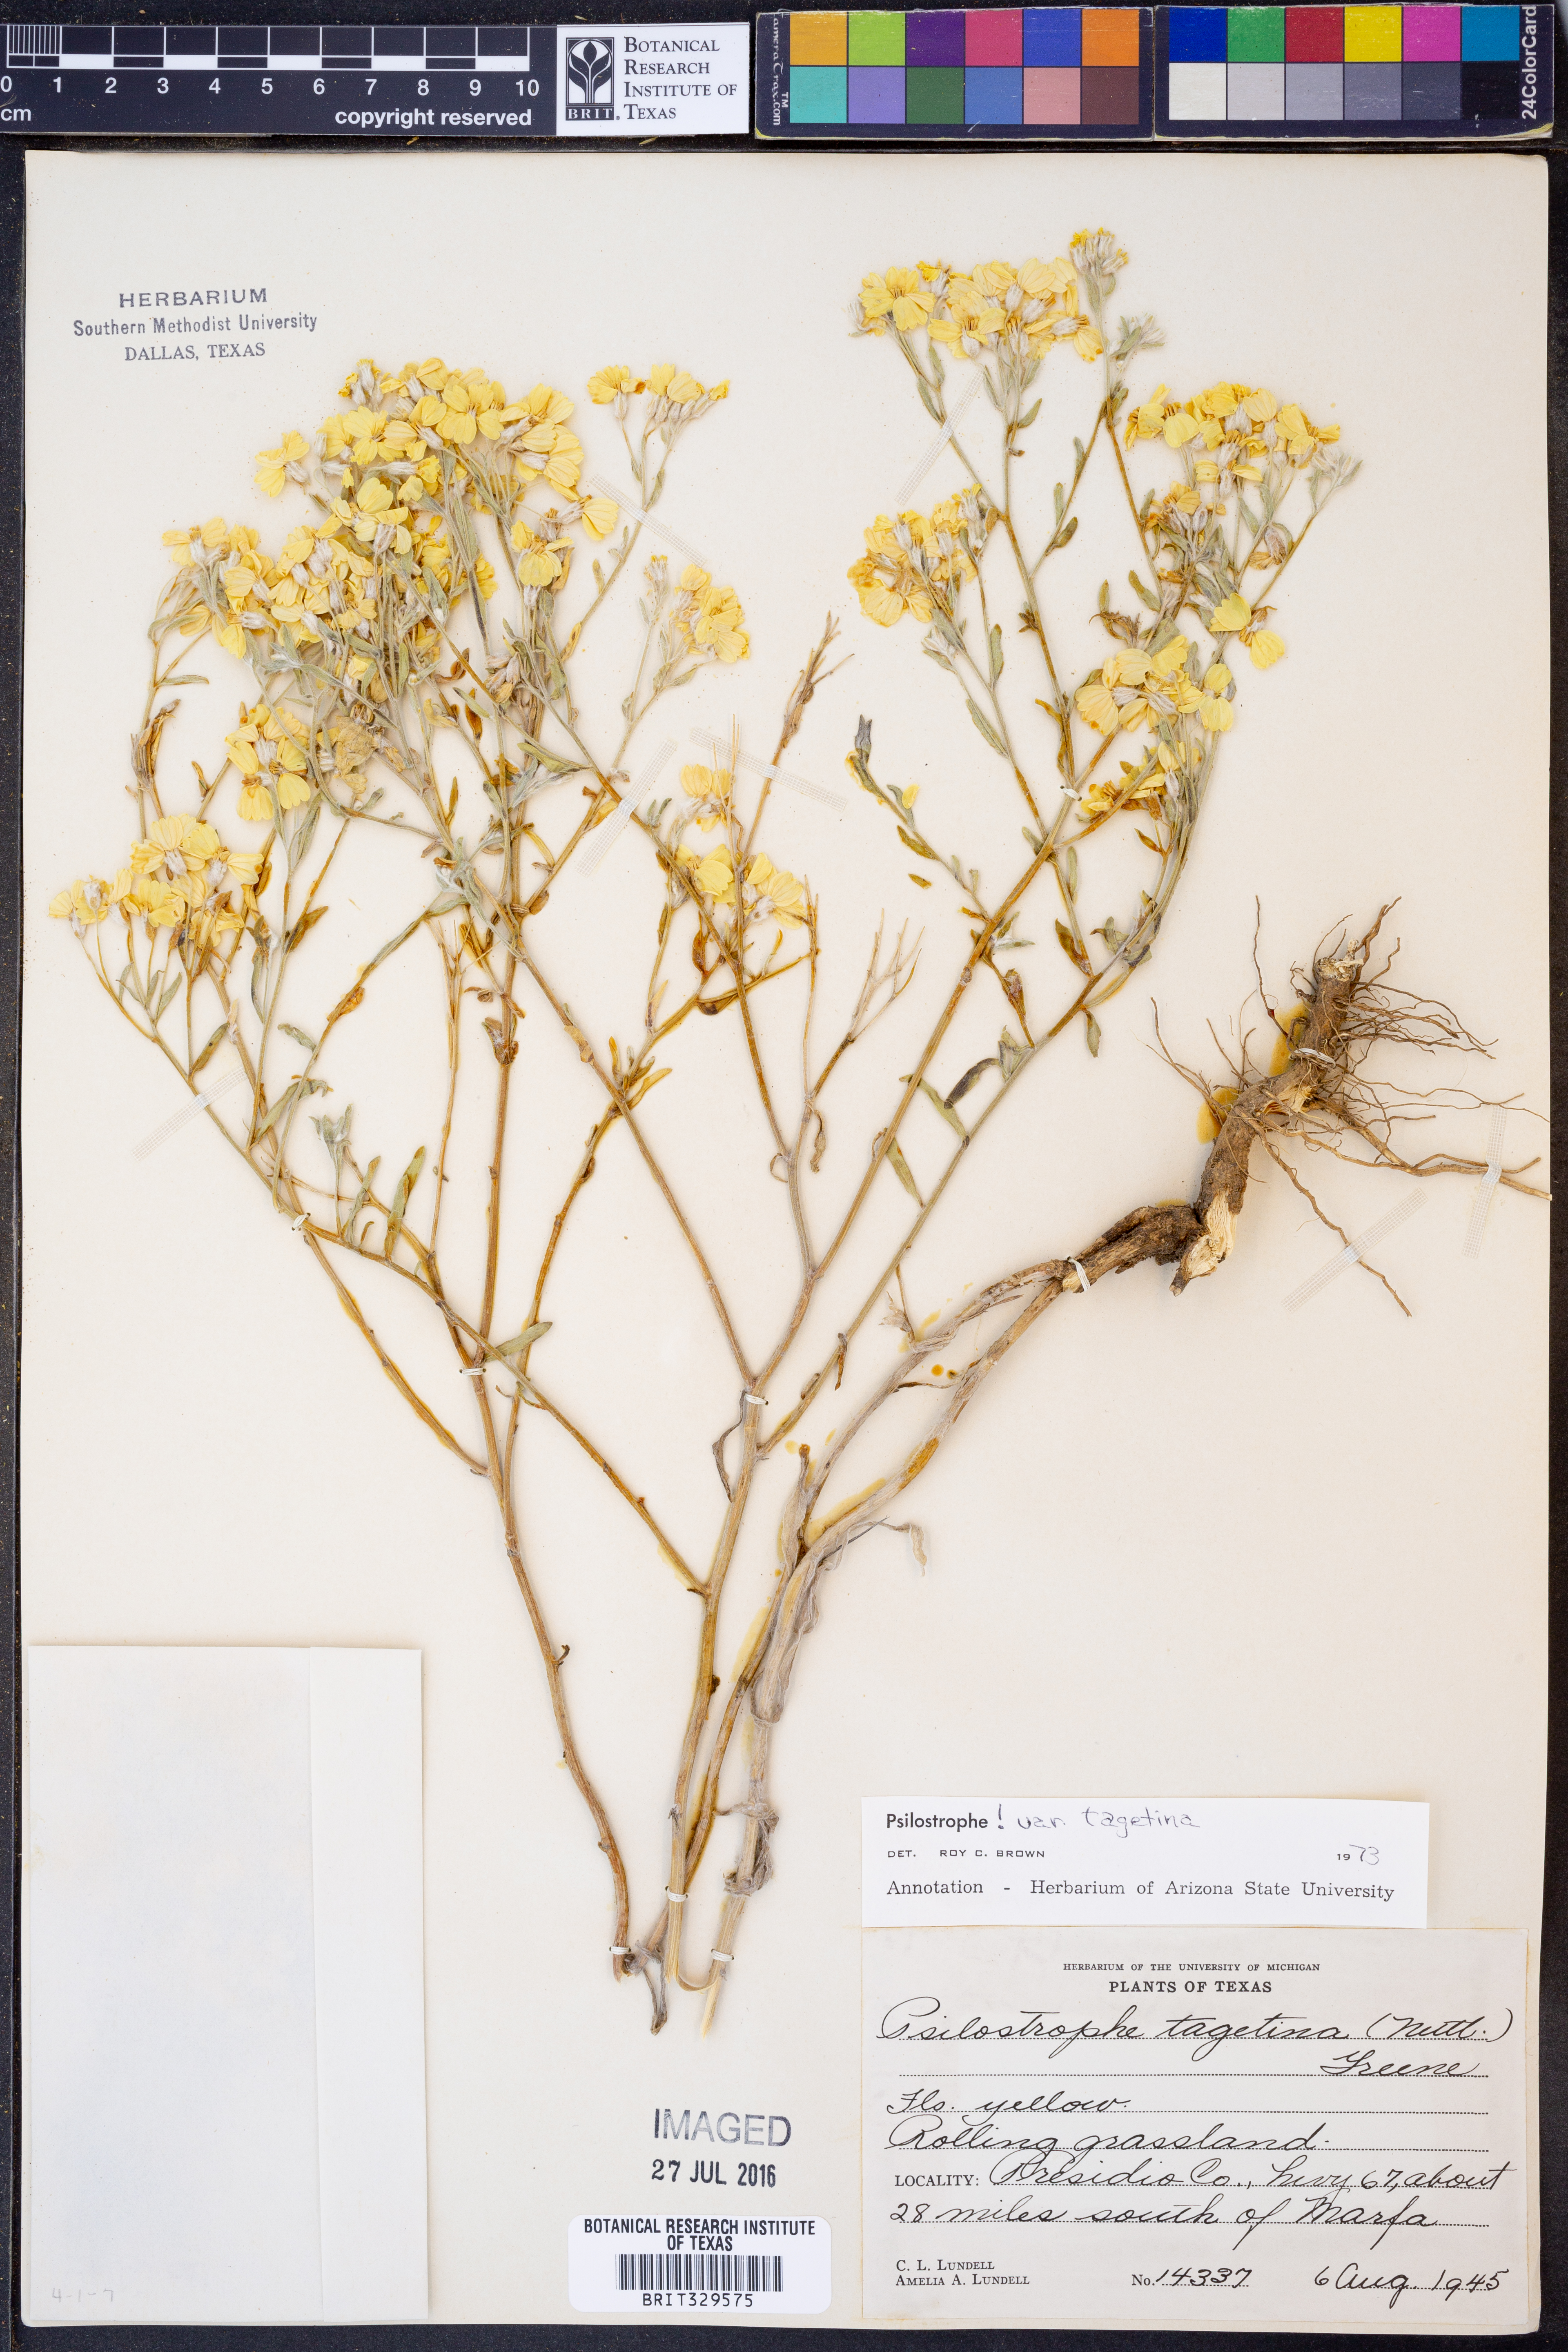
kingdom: Plantae
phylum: Tracheophyta
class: Magnoliopsida
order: Asterales
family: Asteraceae
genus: Psilostrophe
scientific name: Psilostrophe tagetina
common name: Marigold paper-flower
